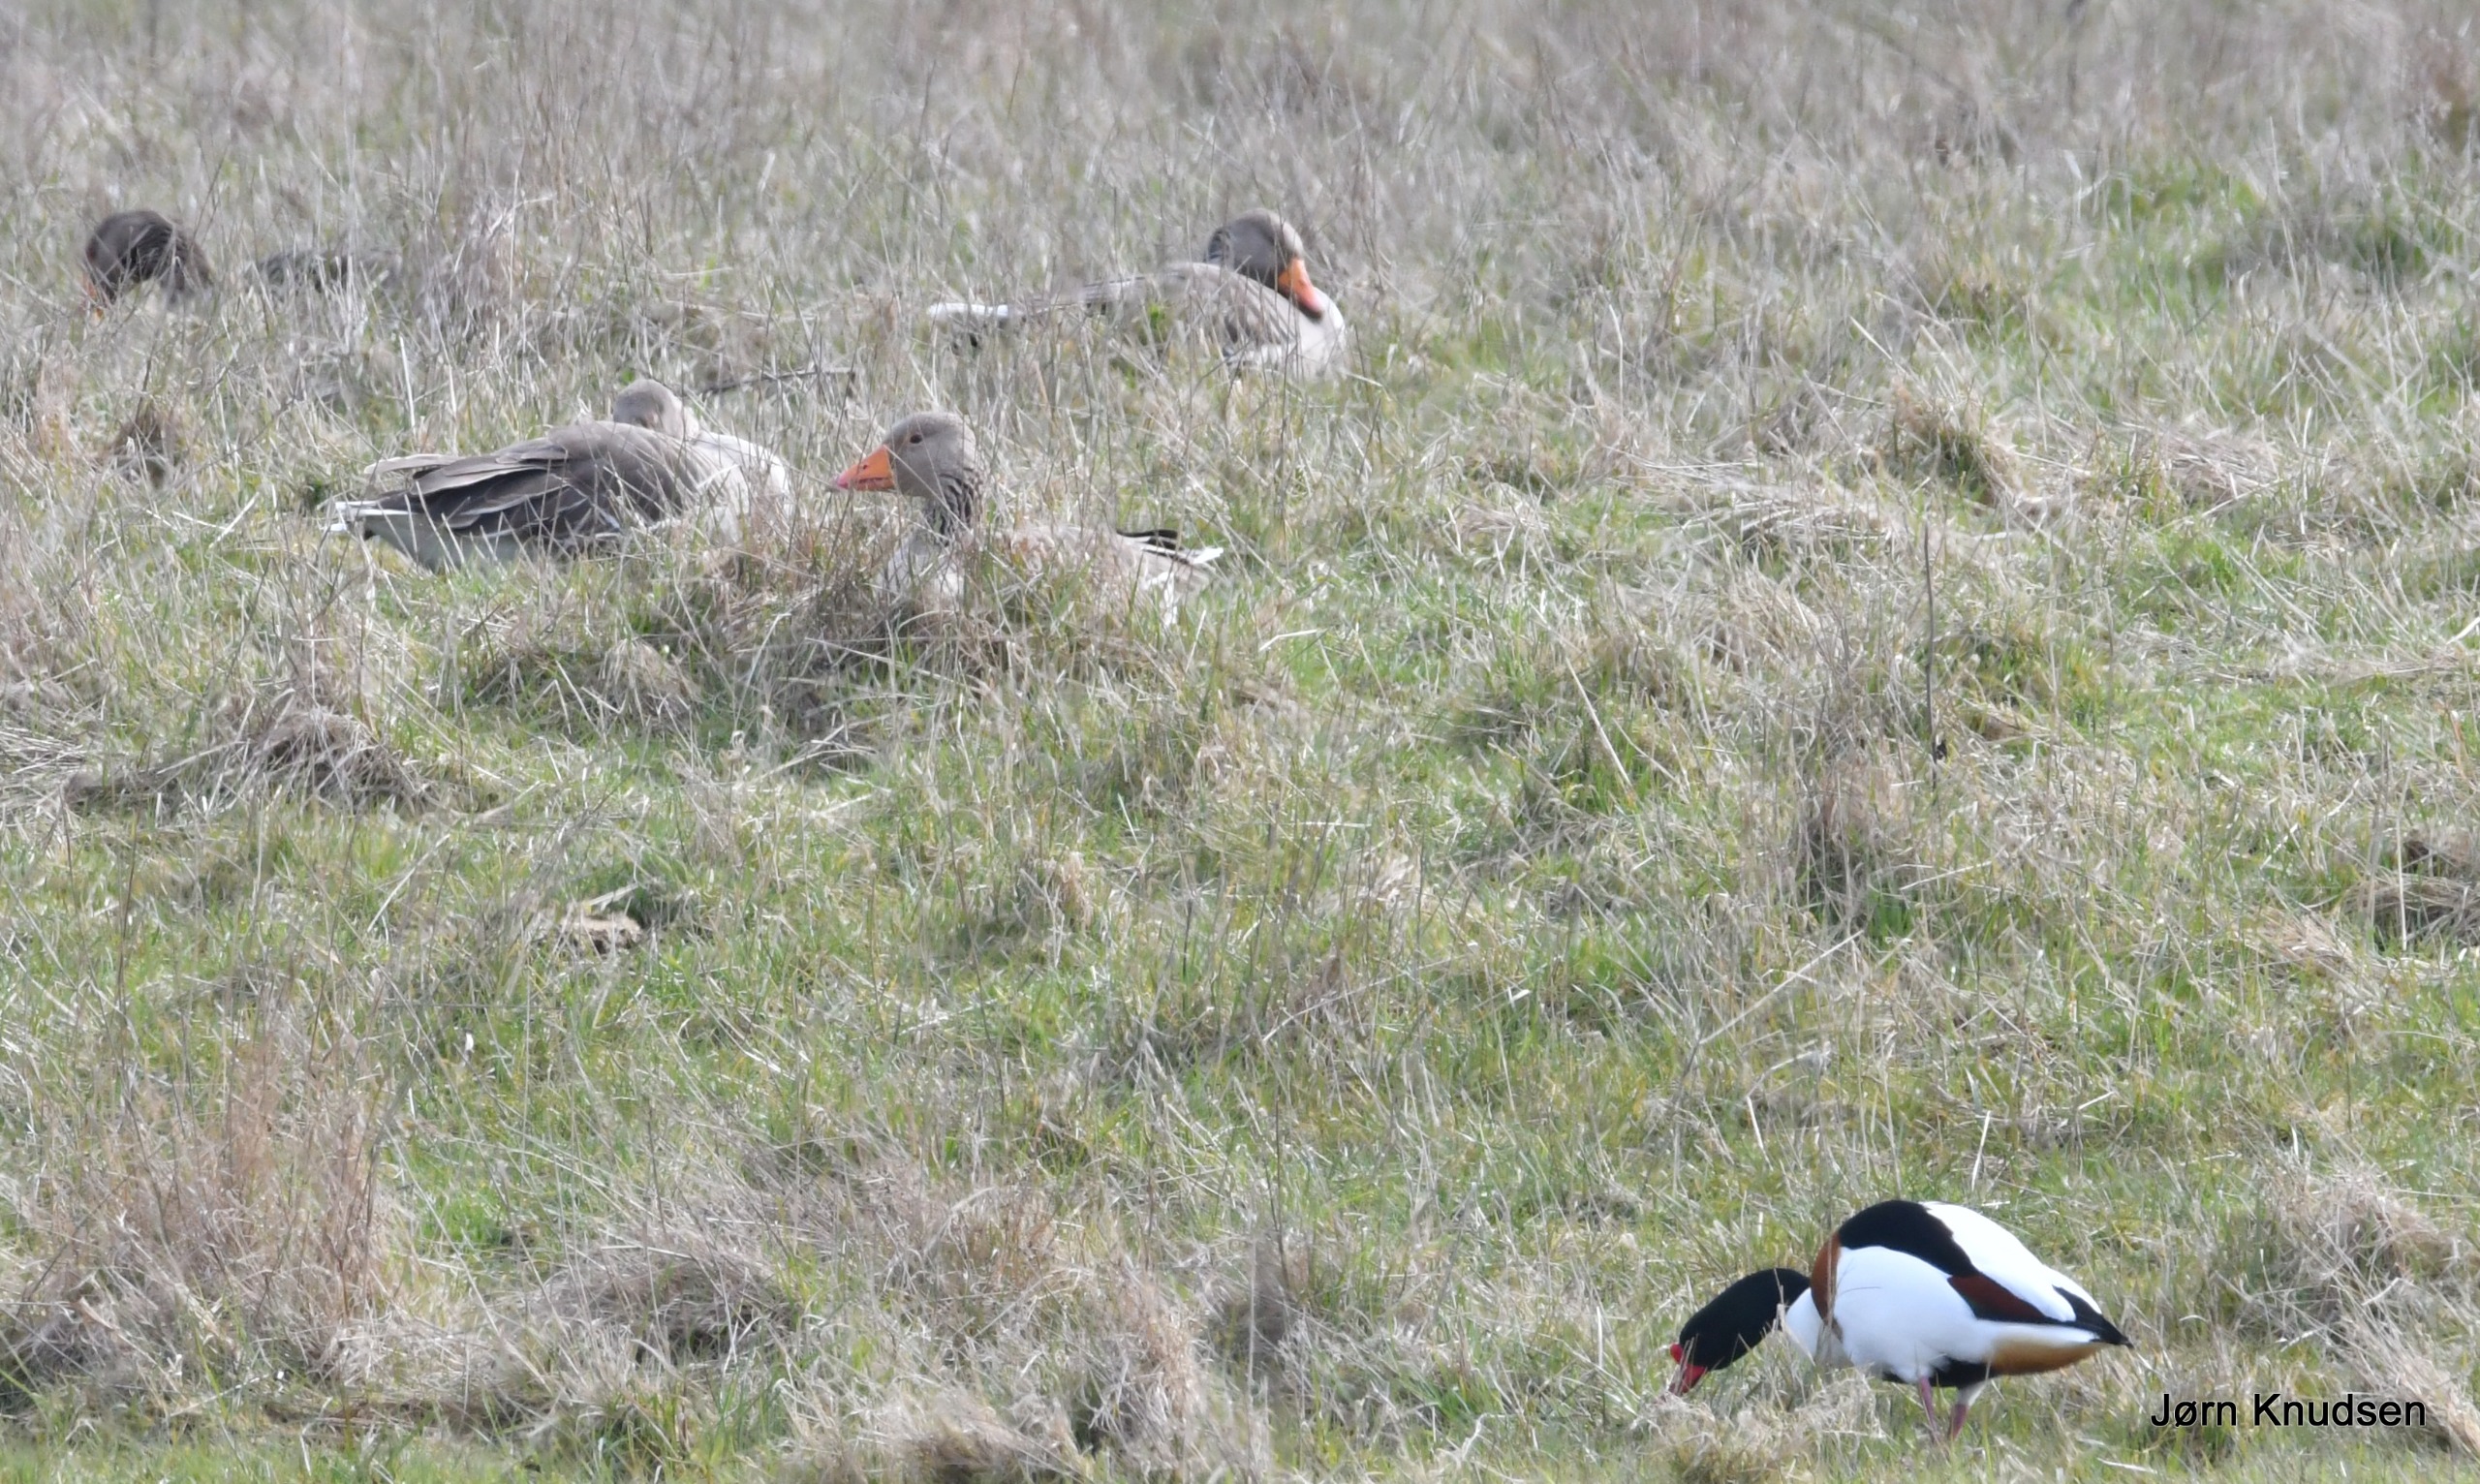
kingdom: Animalia
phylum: Chordata
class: Aves
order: Anseriformes
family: Anatidae
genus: Tadorna
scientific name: Tadorna tadorna
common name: Gravand
